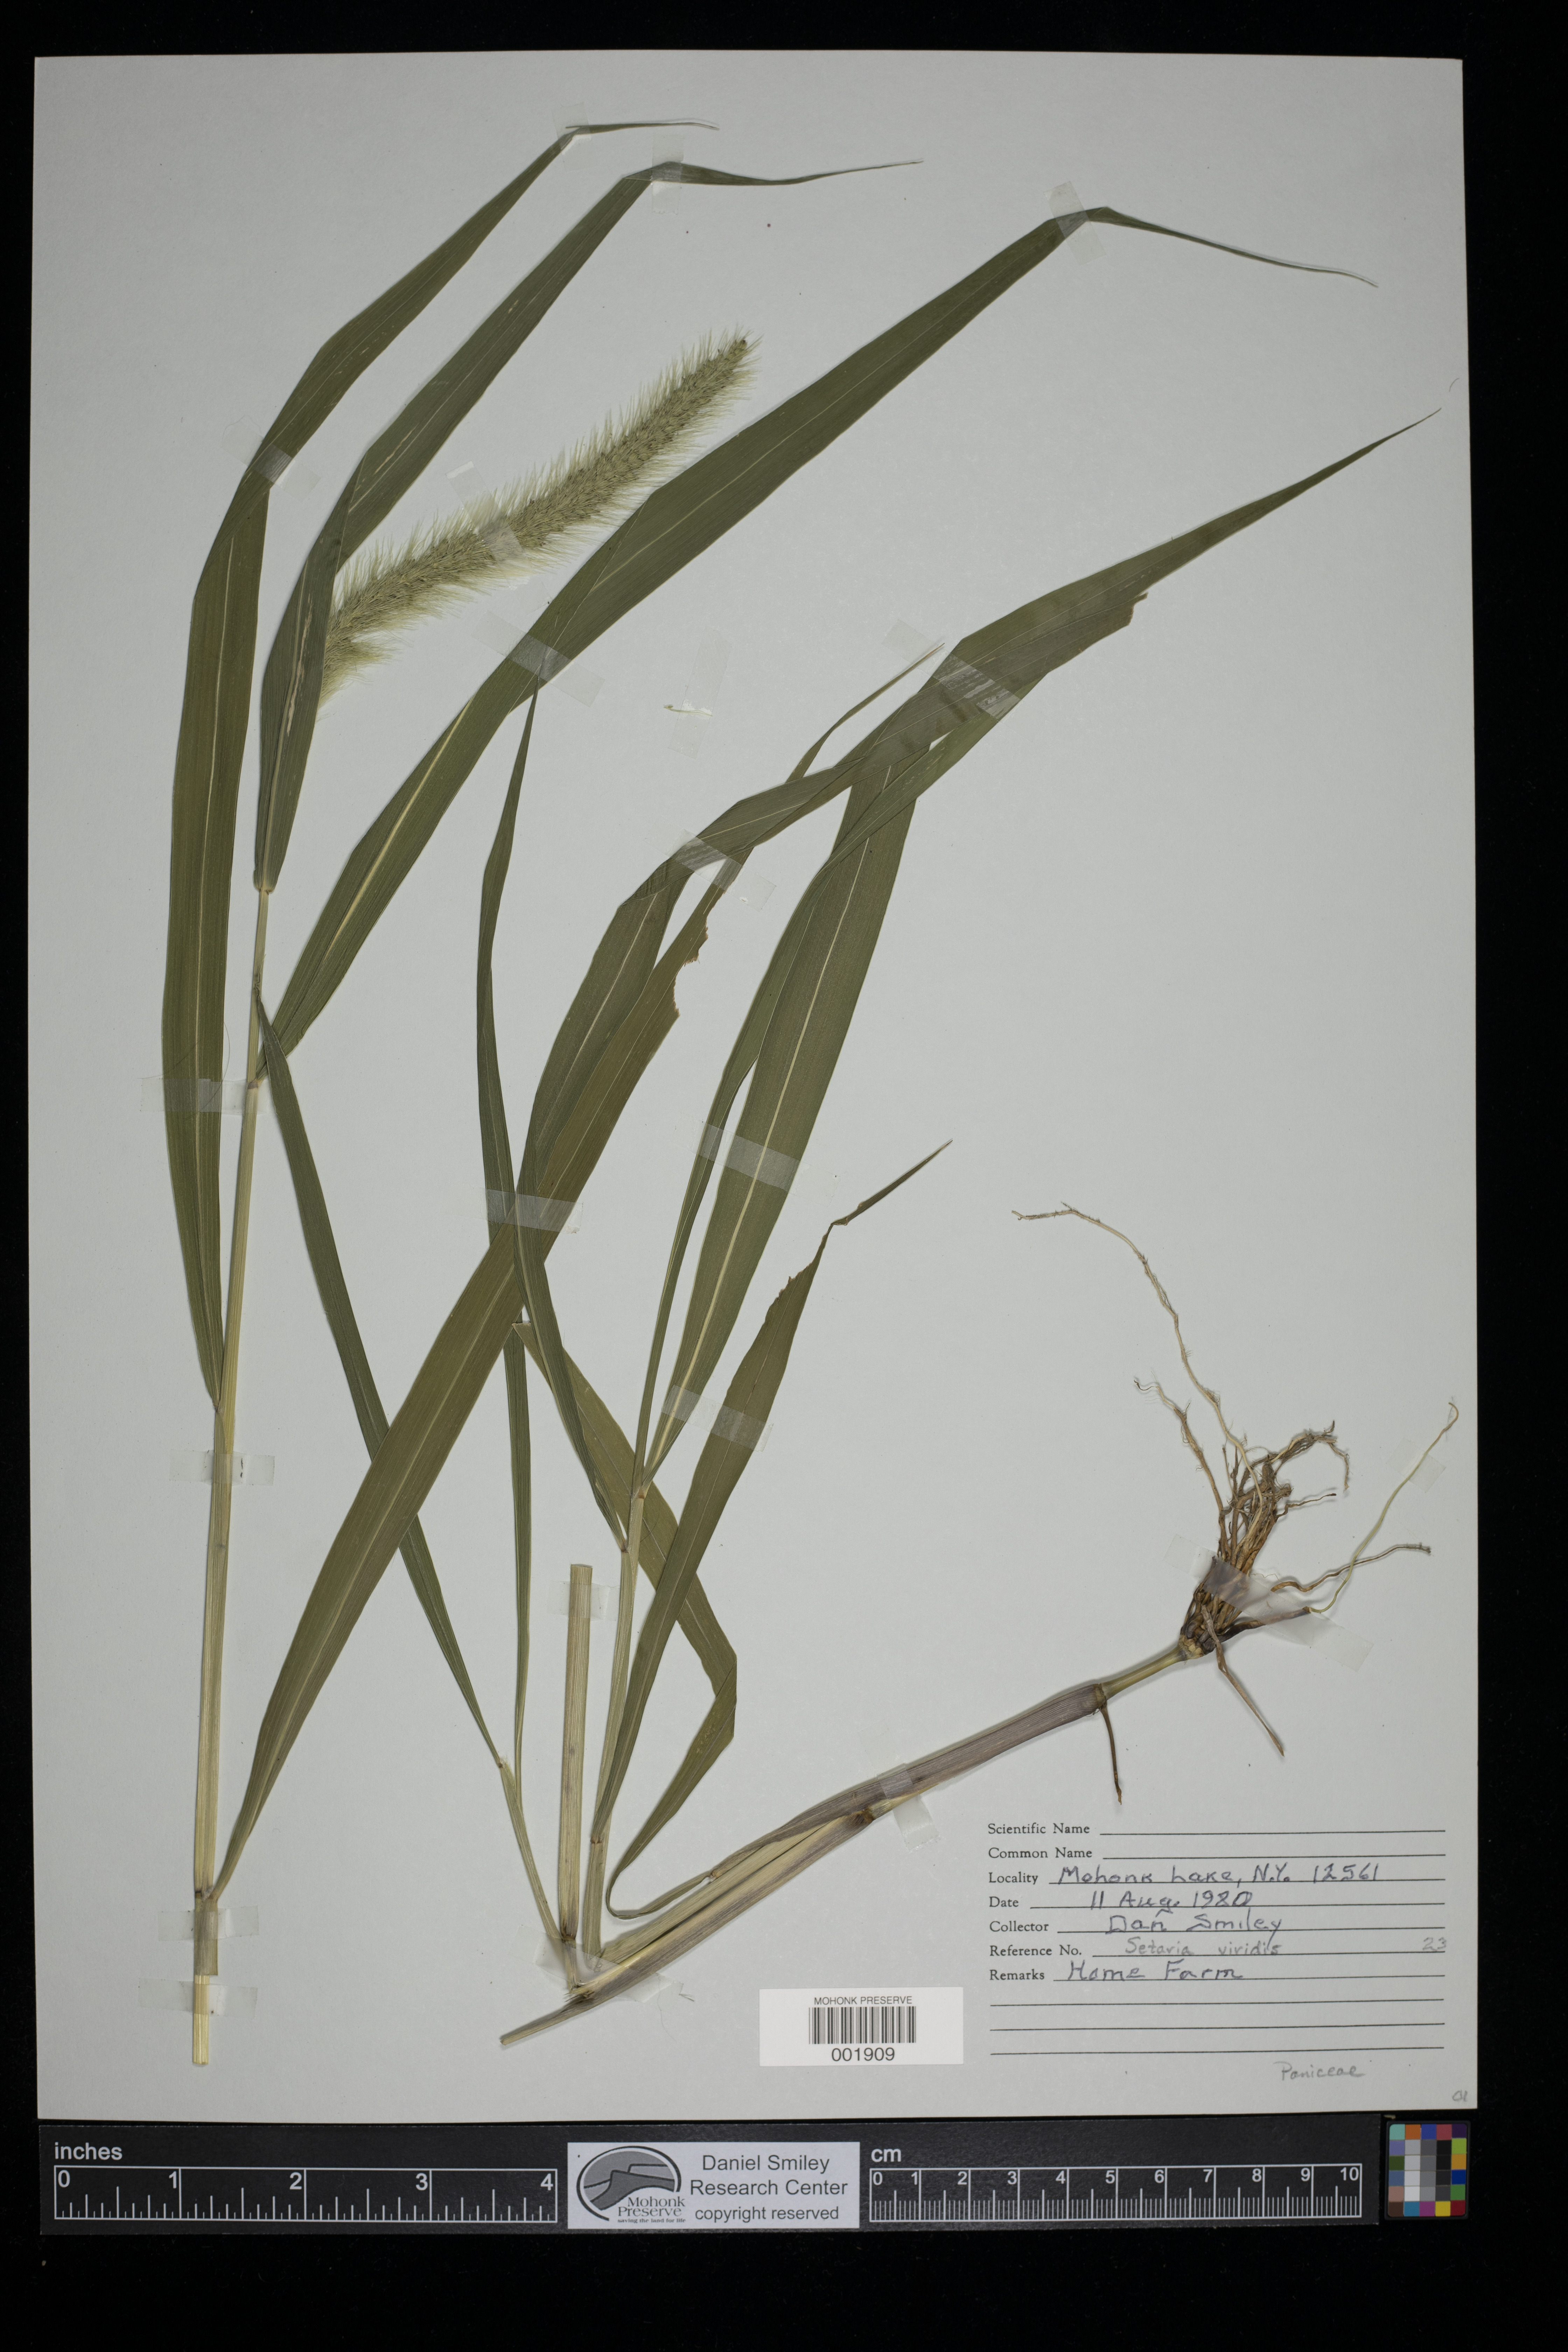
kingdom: Plantae
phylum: Tracheophyta
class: Liliopsida
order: Poales
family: Poaceae
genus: Setaria
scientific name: Setaria viridis
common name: Green bristlegrass
